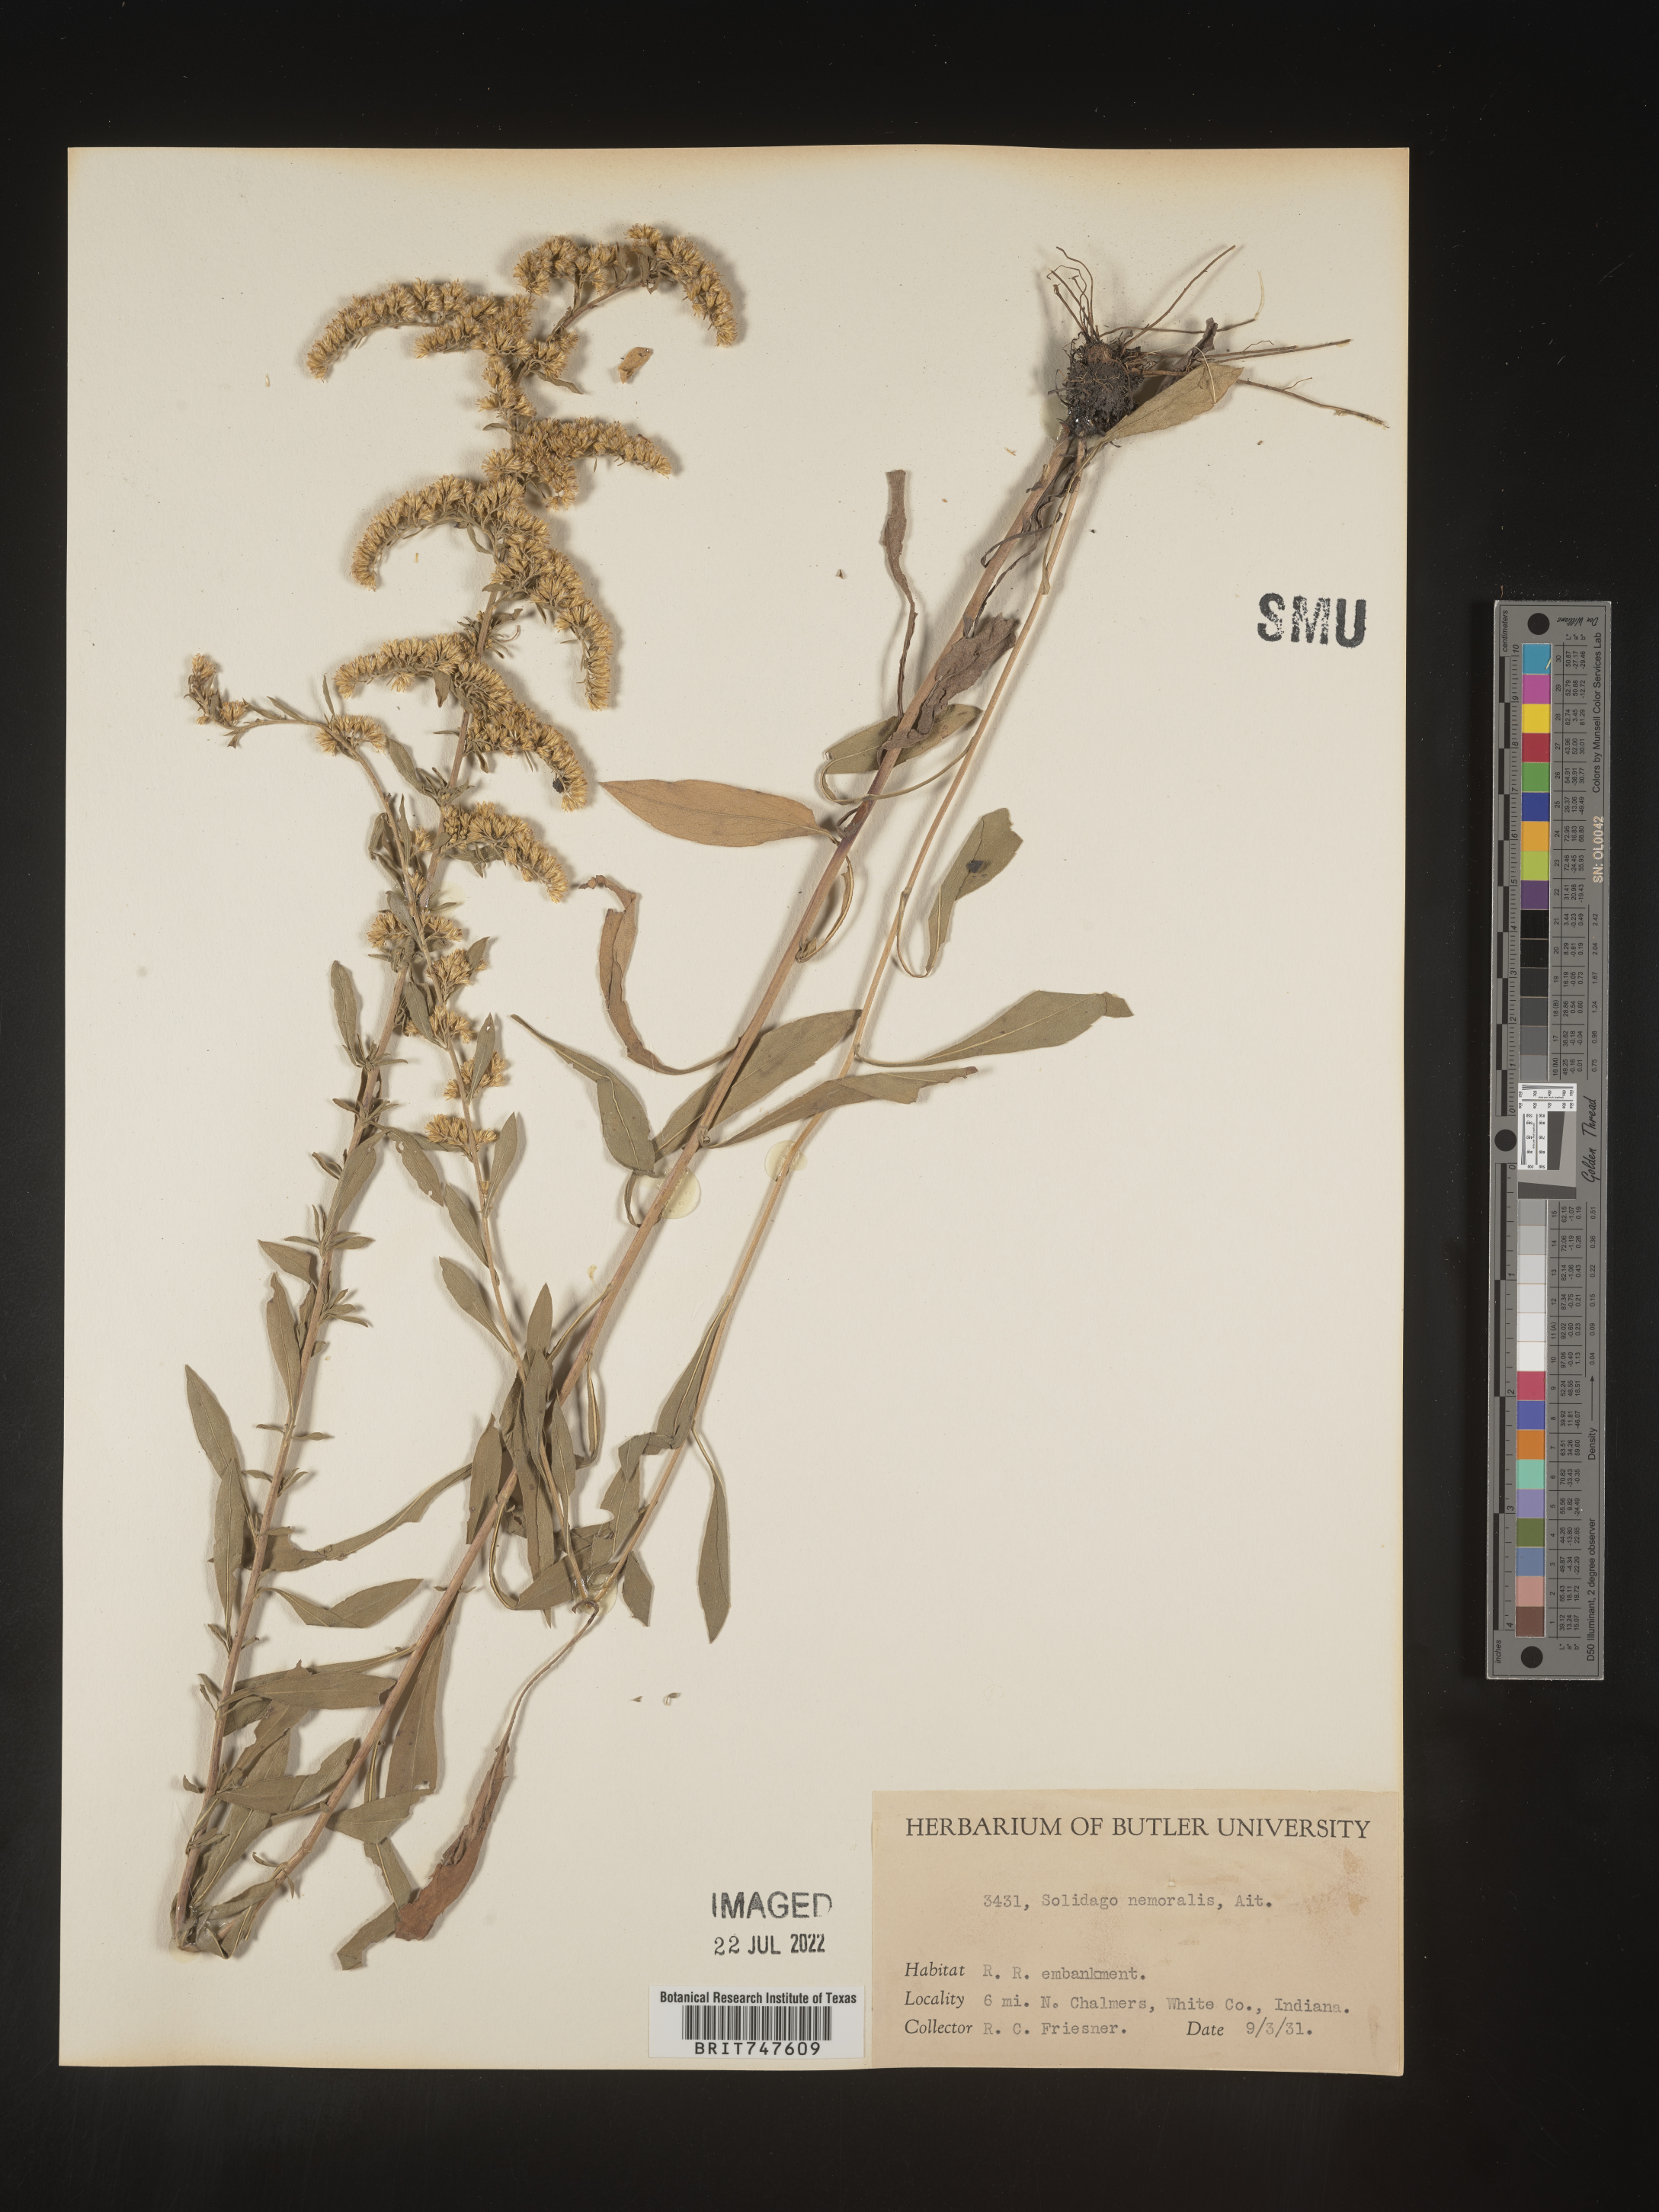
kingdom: Plantae
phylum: Tracheophyta
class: Magnoliopsida
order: Asterales
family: Asteraceae
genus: Solidago
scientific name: Solidago nemoralis
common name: Grey goldenrod
